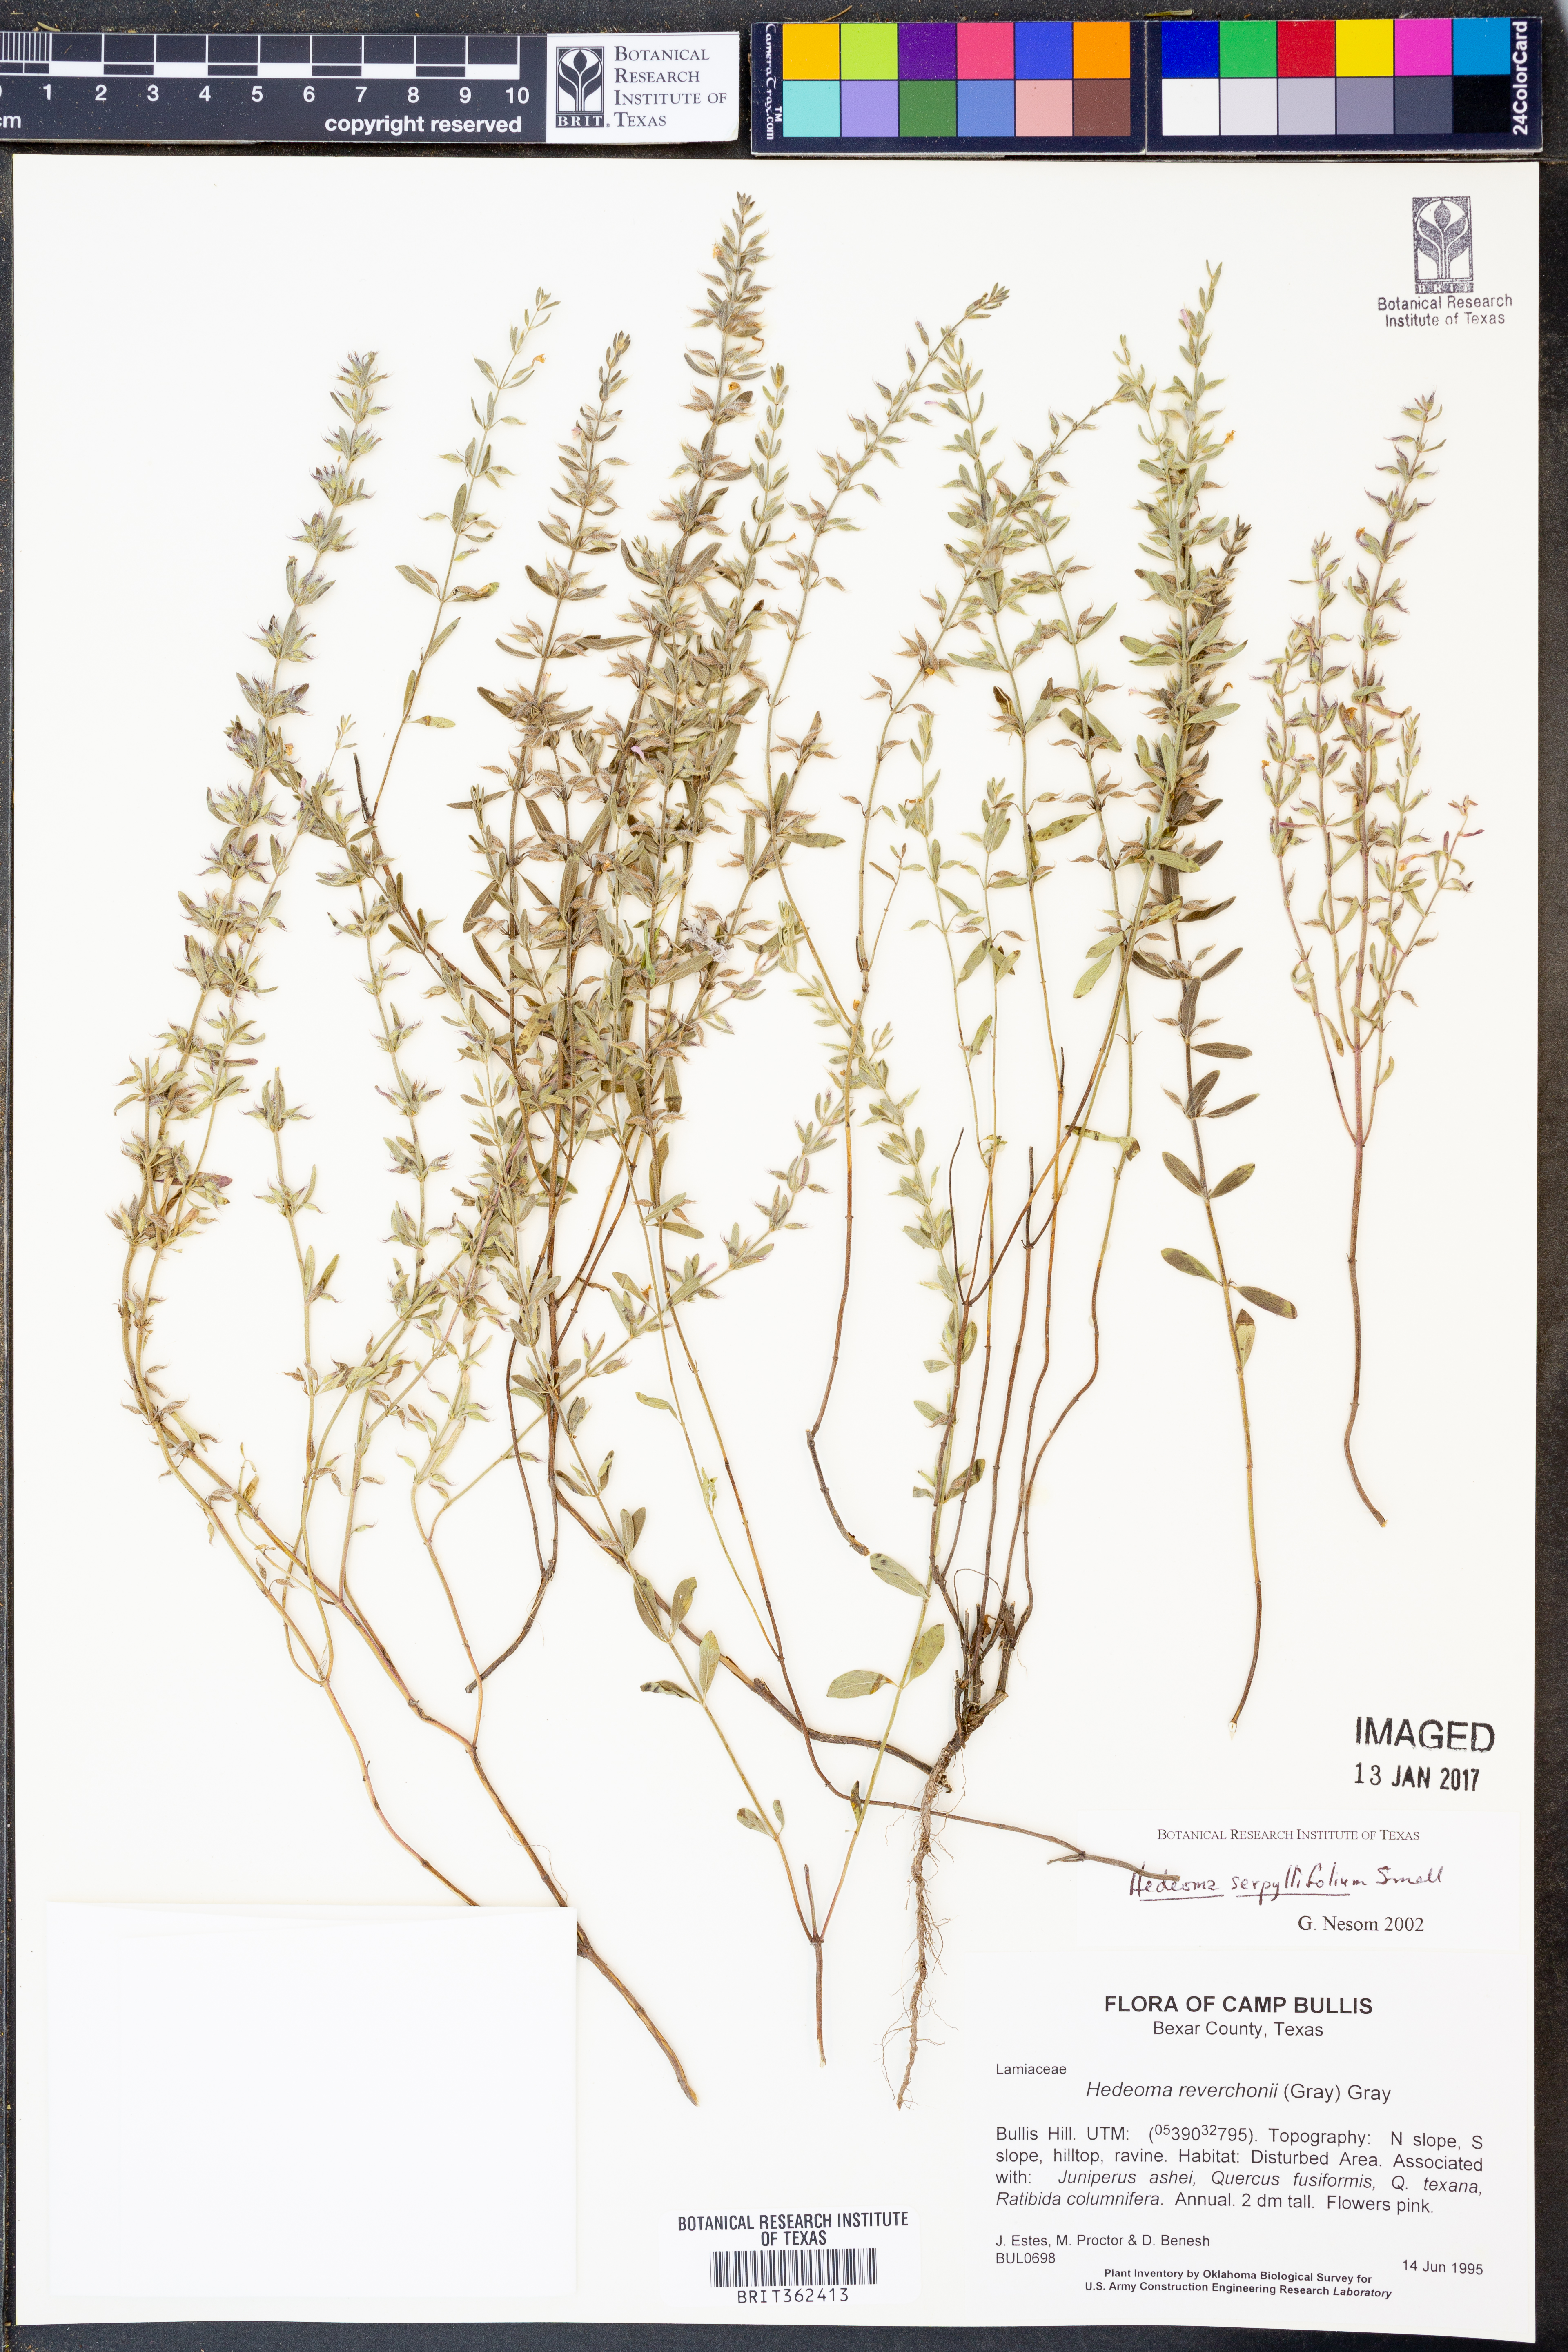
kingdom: Plantae
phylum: Tracheophyta
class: Magnoliopsida
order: Lamiales
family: Lamiaceae
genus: Hedeoma
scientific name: Hedeoma serpyllifolia
